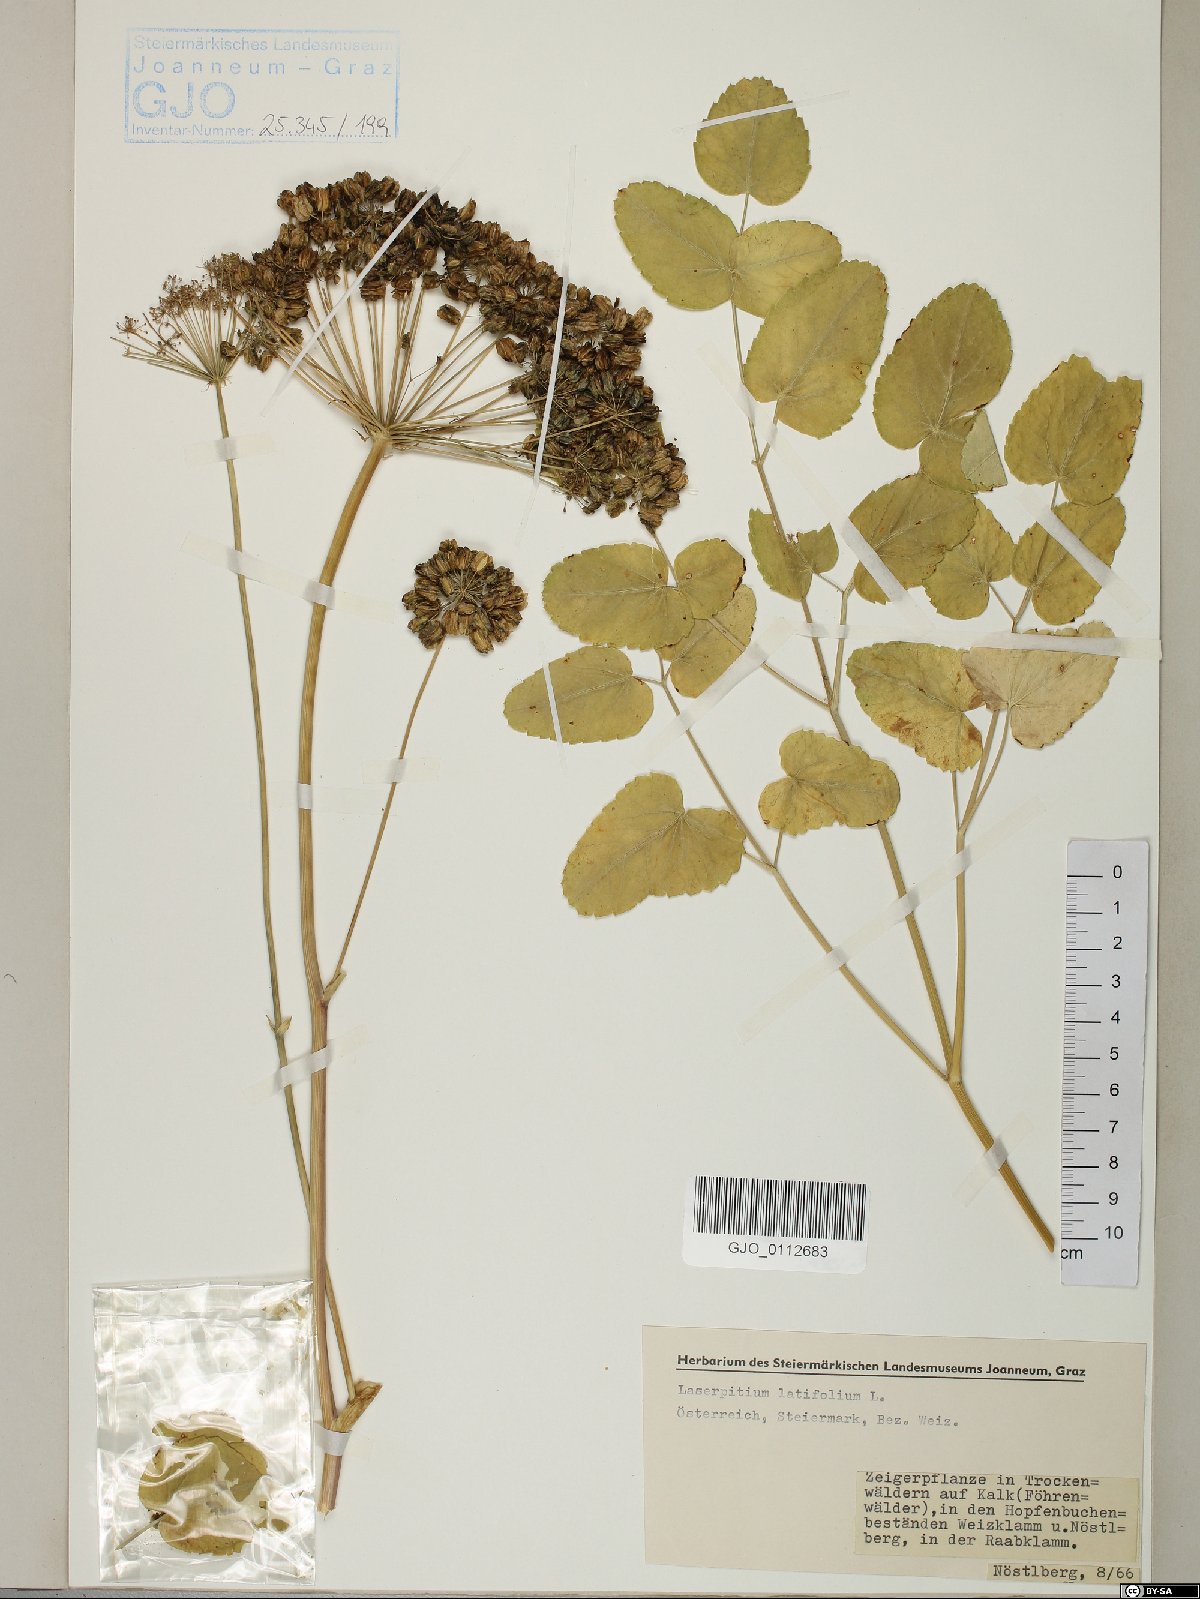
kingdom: Plantae
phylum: Tracheophyta
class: Magnoliopsida
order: Apiales
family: Apiaceae
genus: Laserpitium
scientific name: Laserpitium latifolium
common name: Broadleaf sermountain
